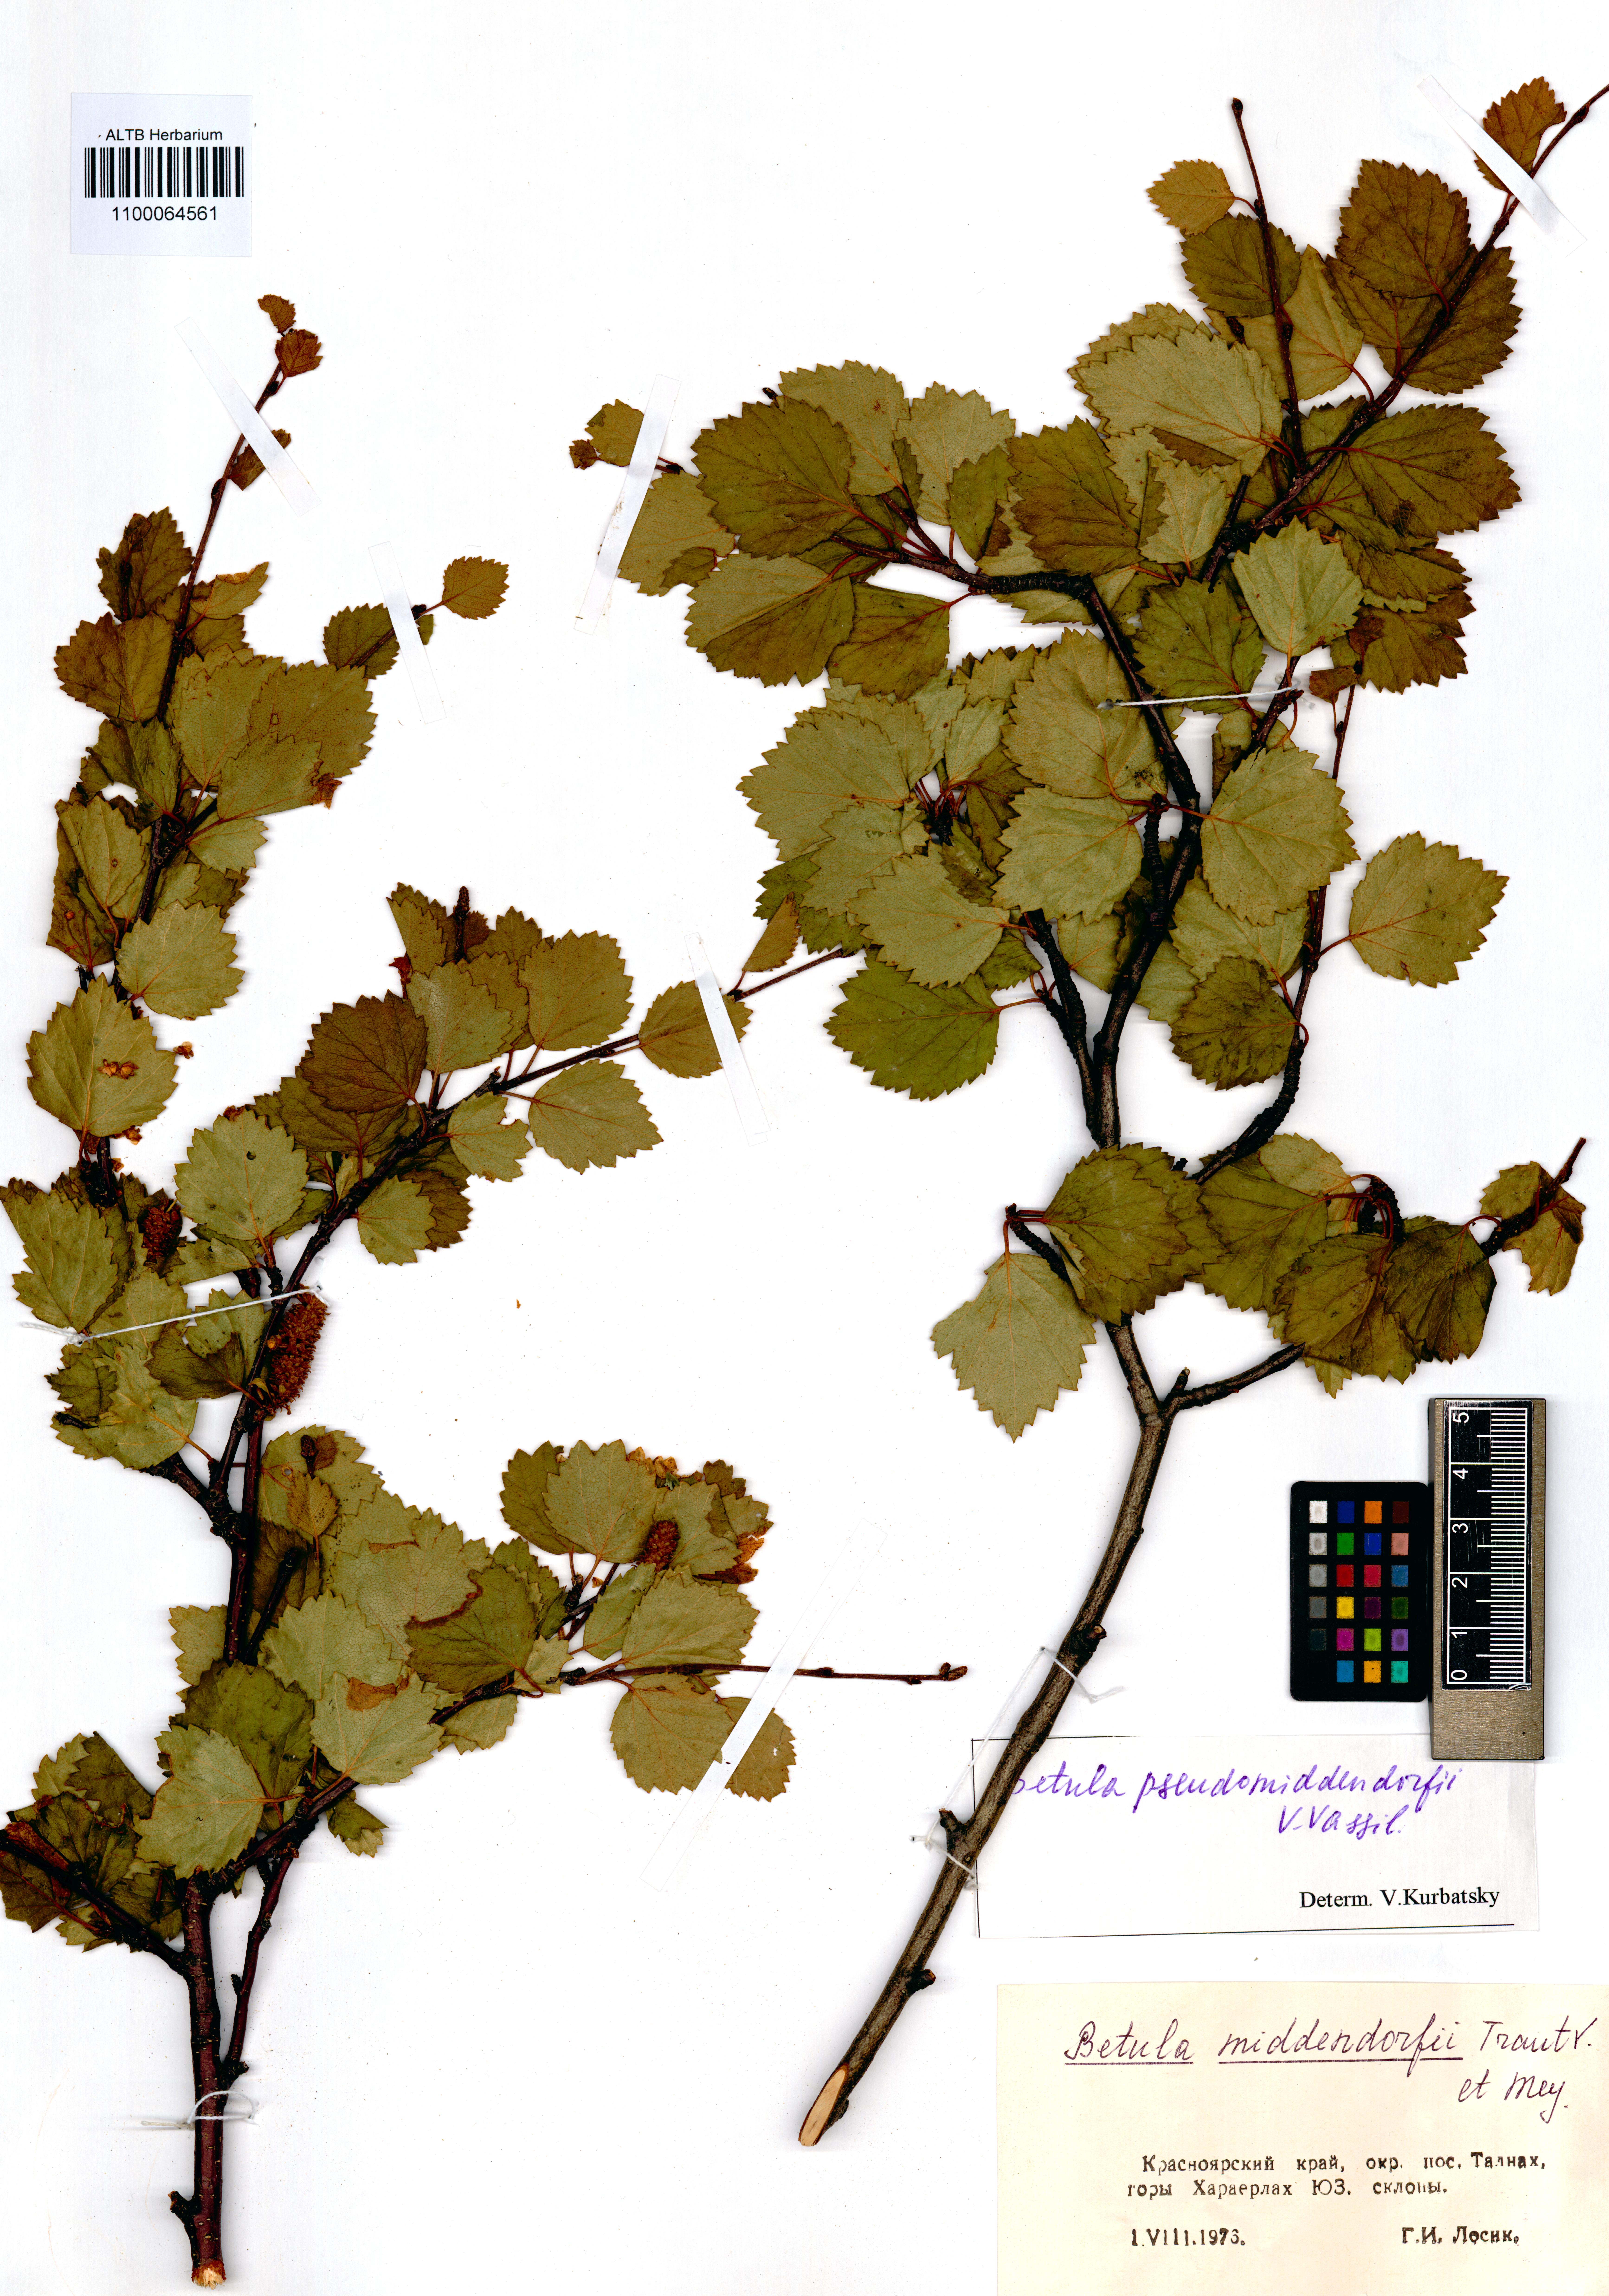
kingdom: Plantae
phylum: Tracheophyta
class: Magnoliopsida
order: Fagales
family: Betulaceae
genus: Betula
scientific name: Betula fruticosa
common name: Japanese bog birch
